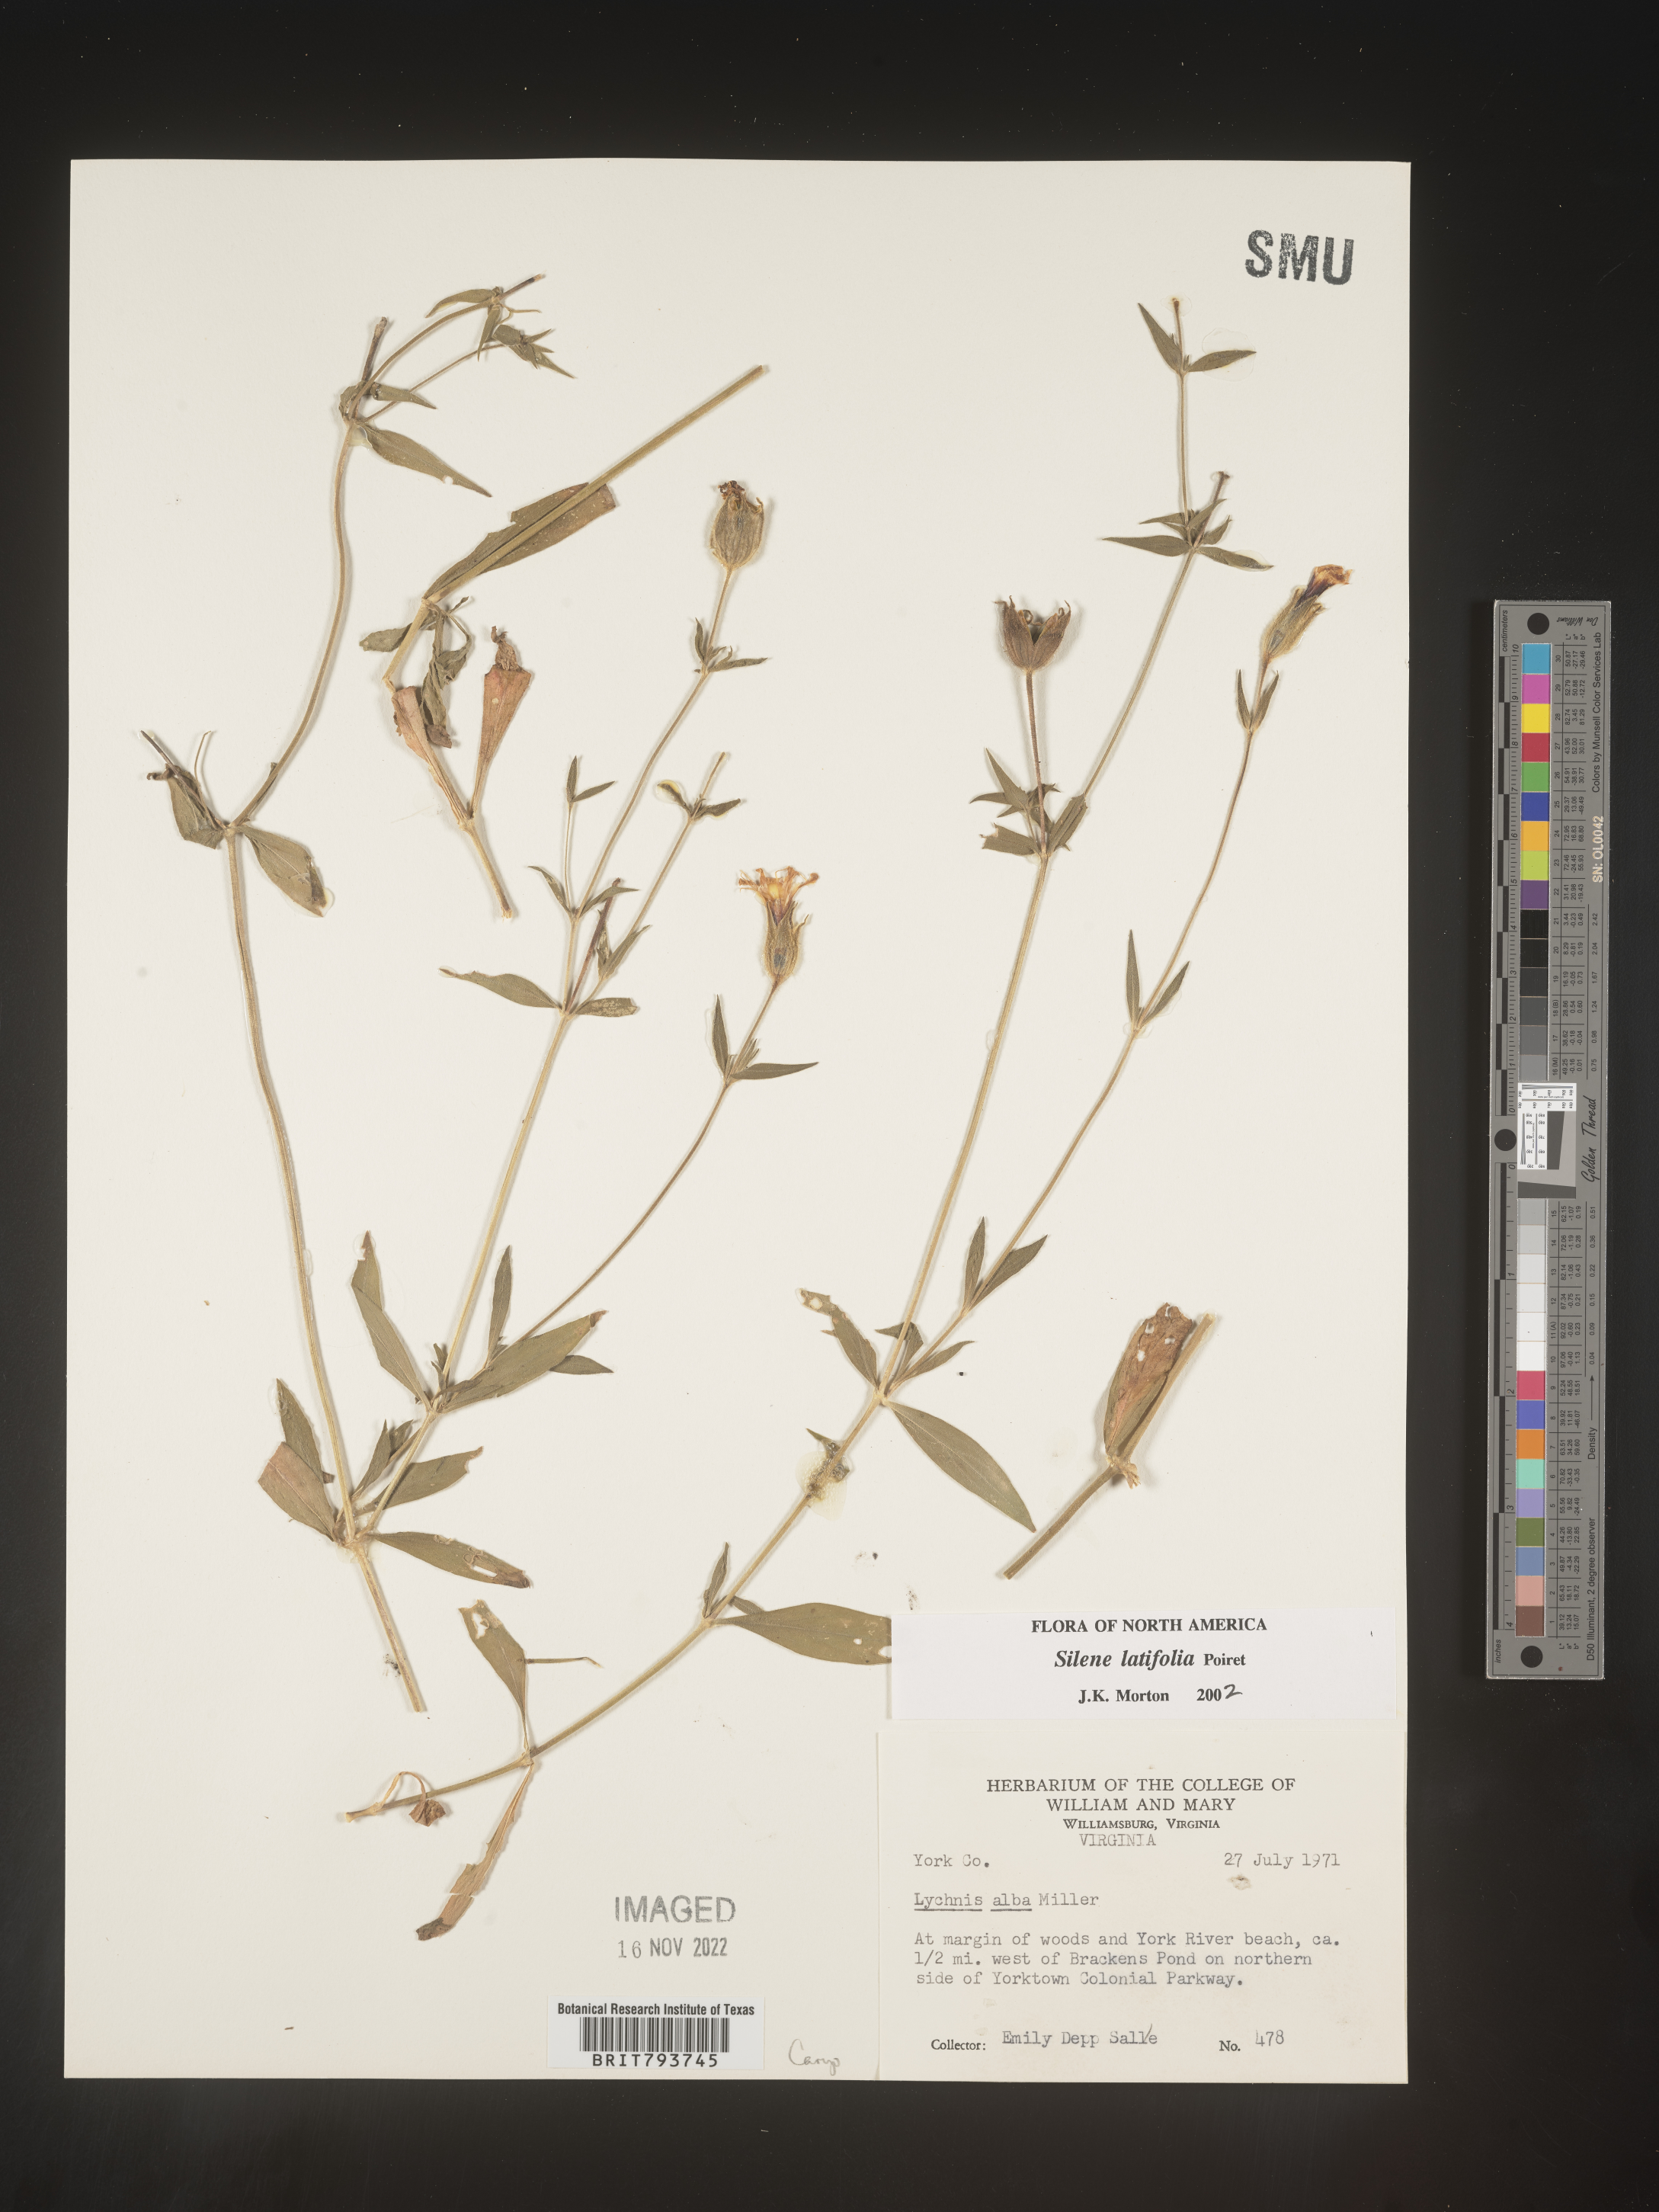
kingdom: Plantae
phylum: Tracheophyta
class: Magnoliopsida
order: Caryophyllales
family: Caryophyllaceae
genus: Silene
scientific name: Silene latifolia
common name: White campion
